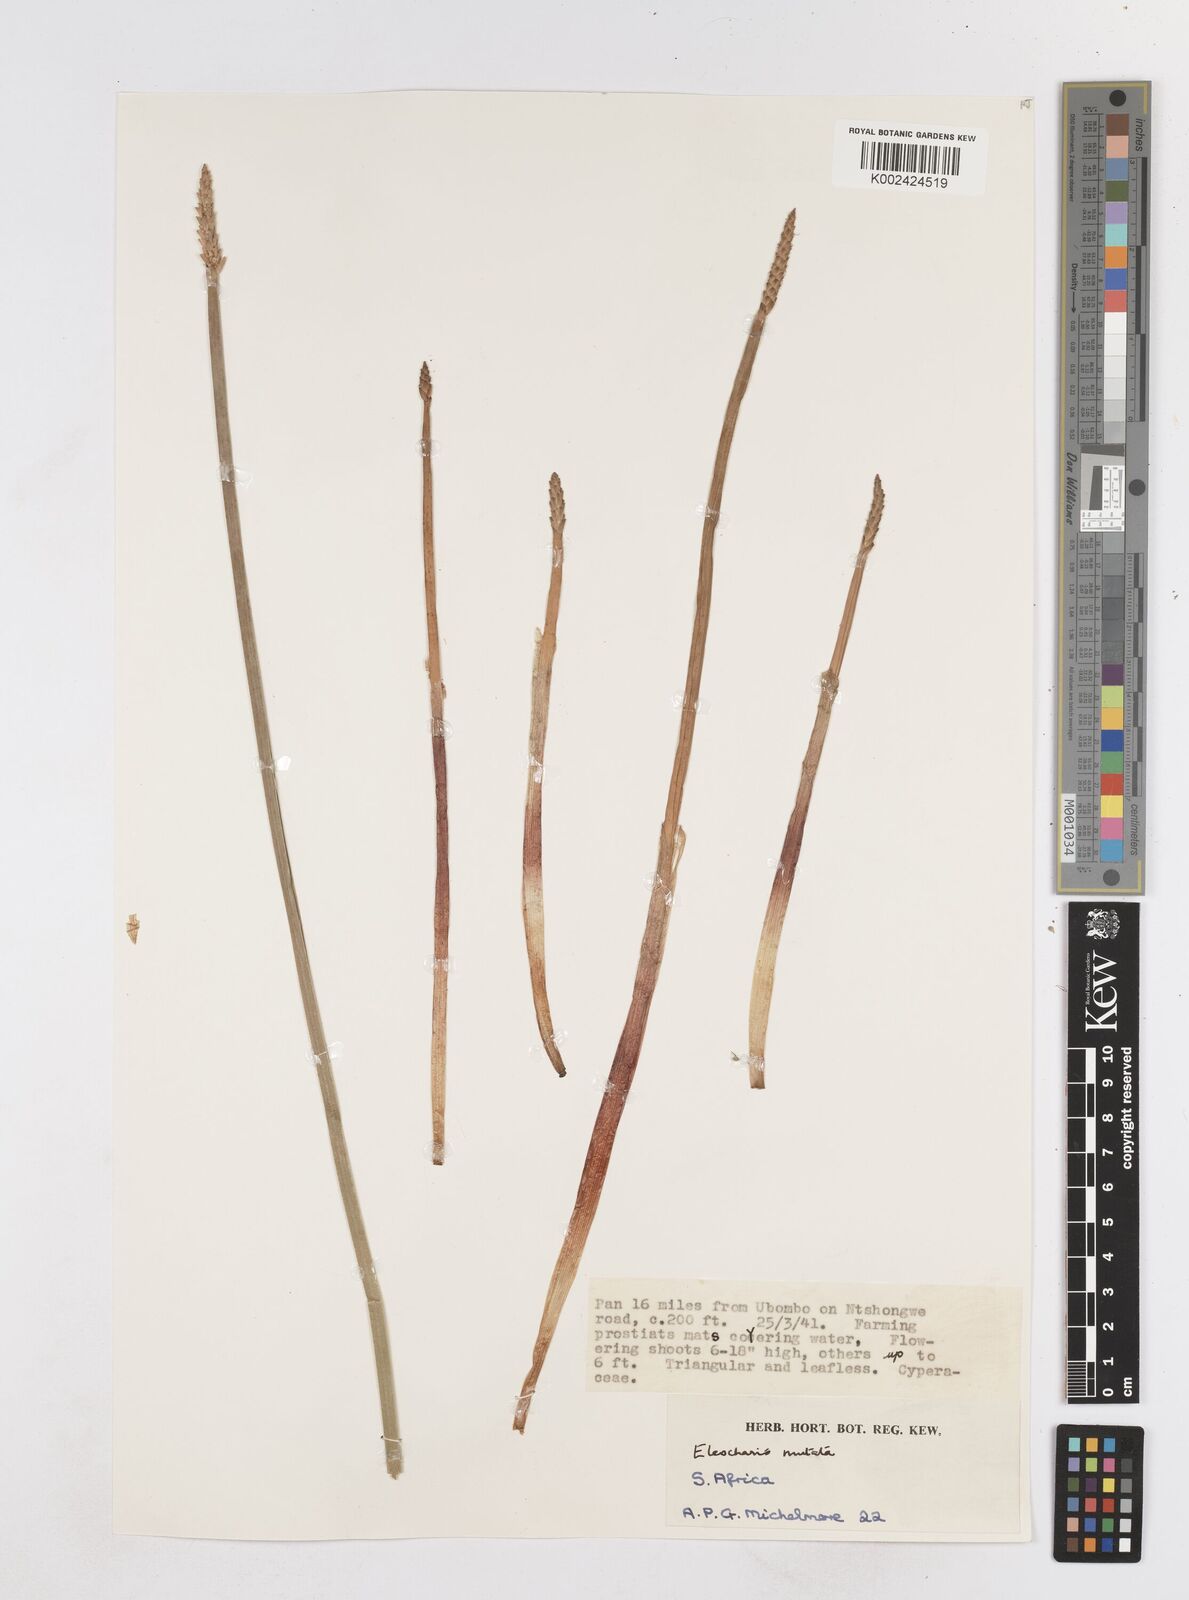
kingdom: Plantae
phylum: Tracheophyta
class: Liliopsida
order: Poales
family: Cyperaceae
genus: Eleocharis
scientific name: Eleocharis acutangula
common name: Acute spikerush
